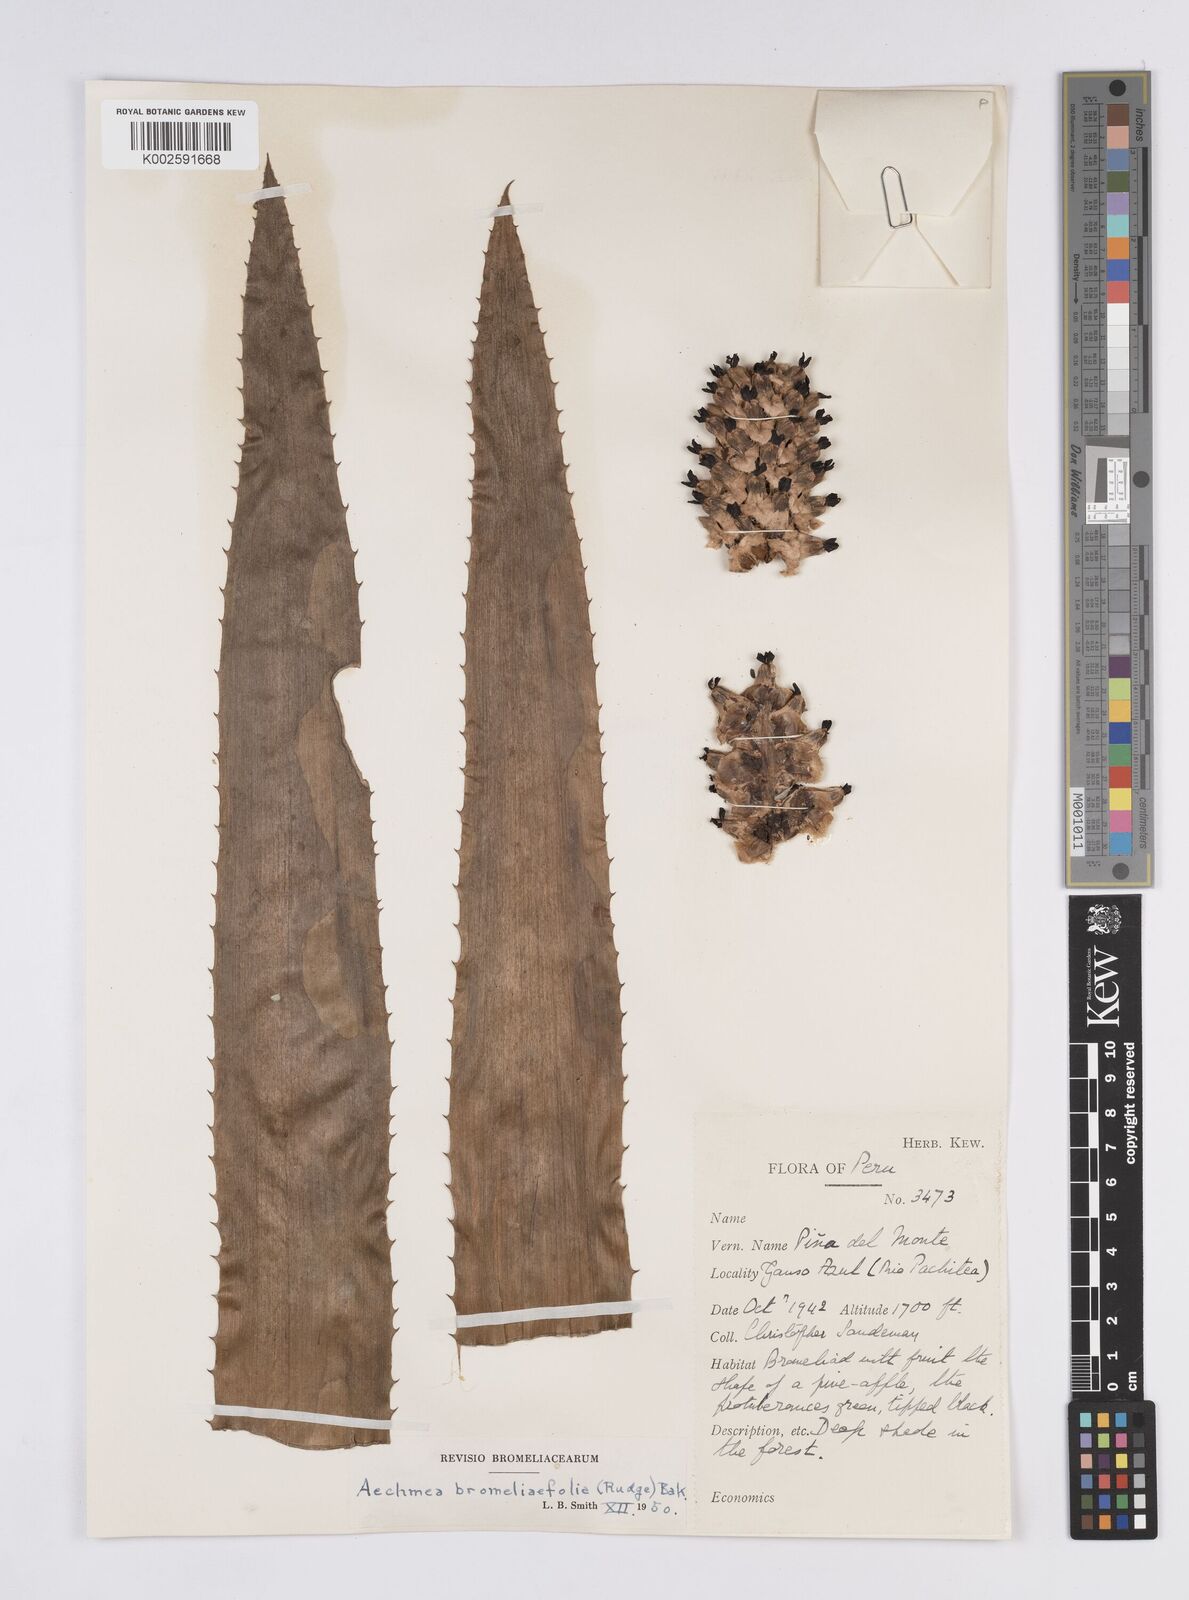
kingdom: Plantae
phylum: Tracheophyta
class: Liliopsida
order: Poales
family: Bromeliaceae
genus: Aechmea
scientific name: Aechmea bromeliifolia
